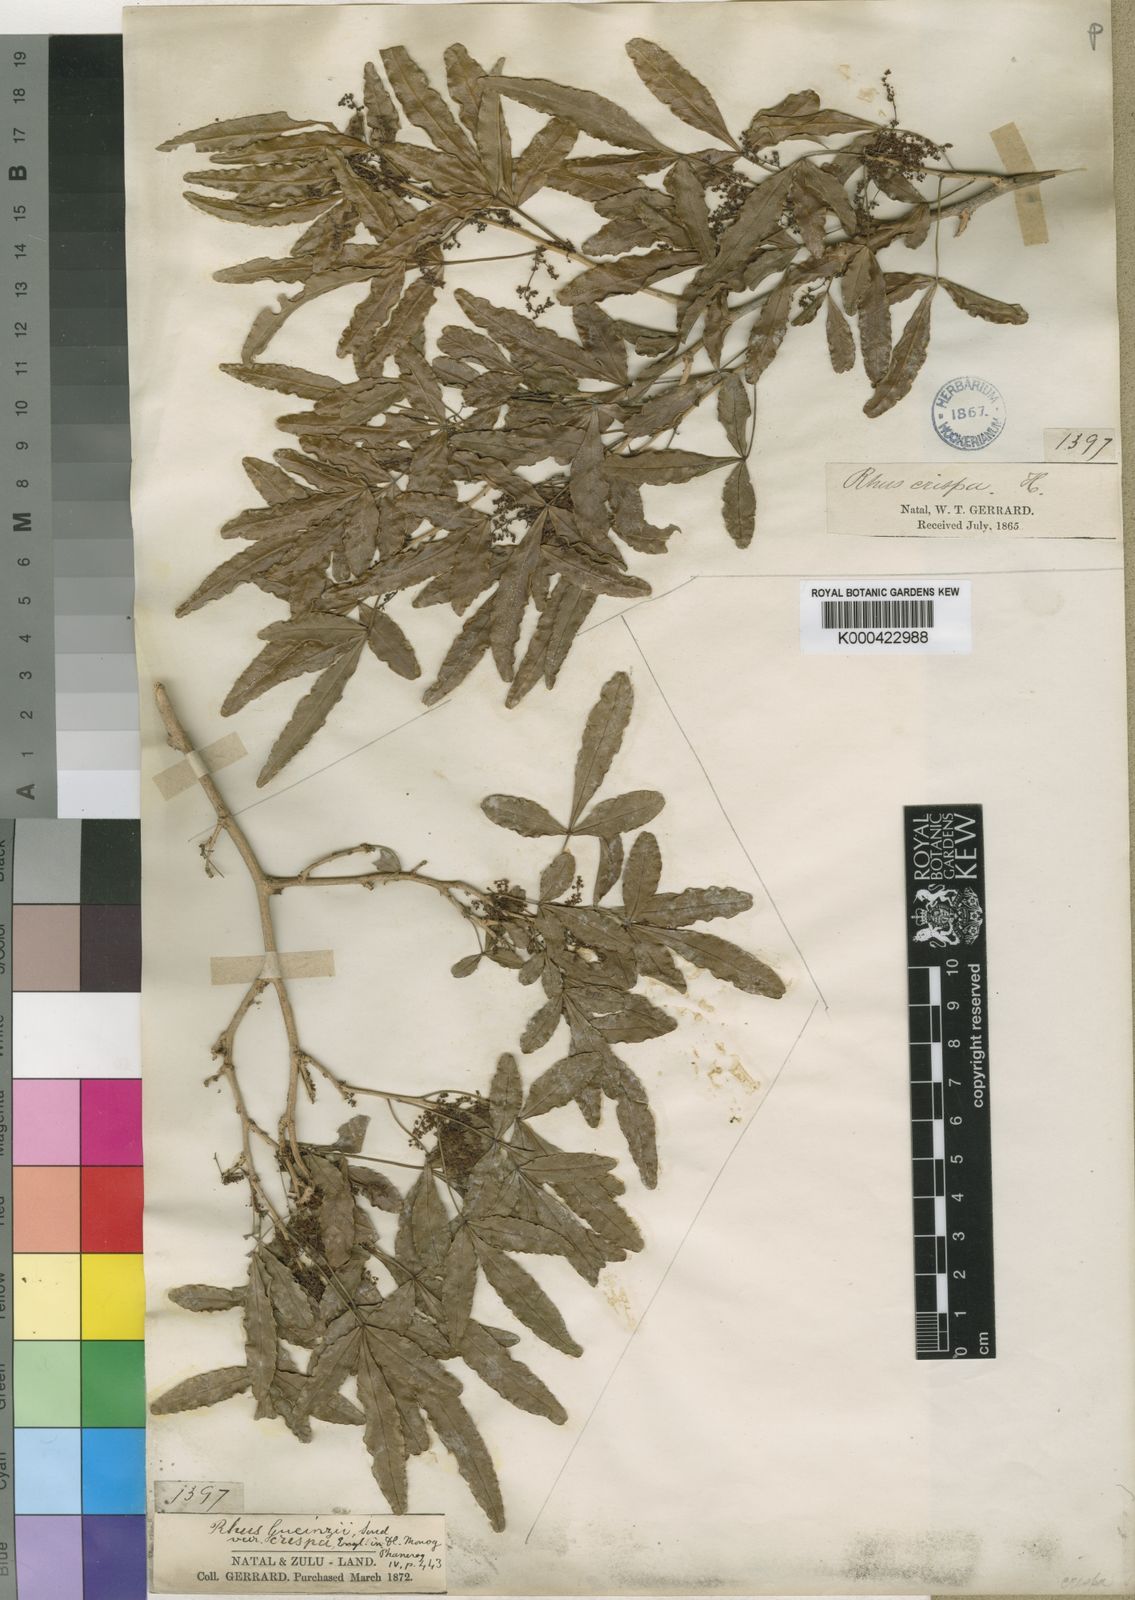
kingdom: Plantae
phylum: Tracheophyta
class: Magnoliopsida
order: Sapindales
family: Anacardiaceae
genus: Rhus
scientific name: Rhus
